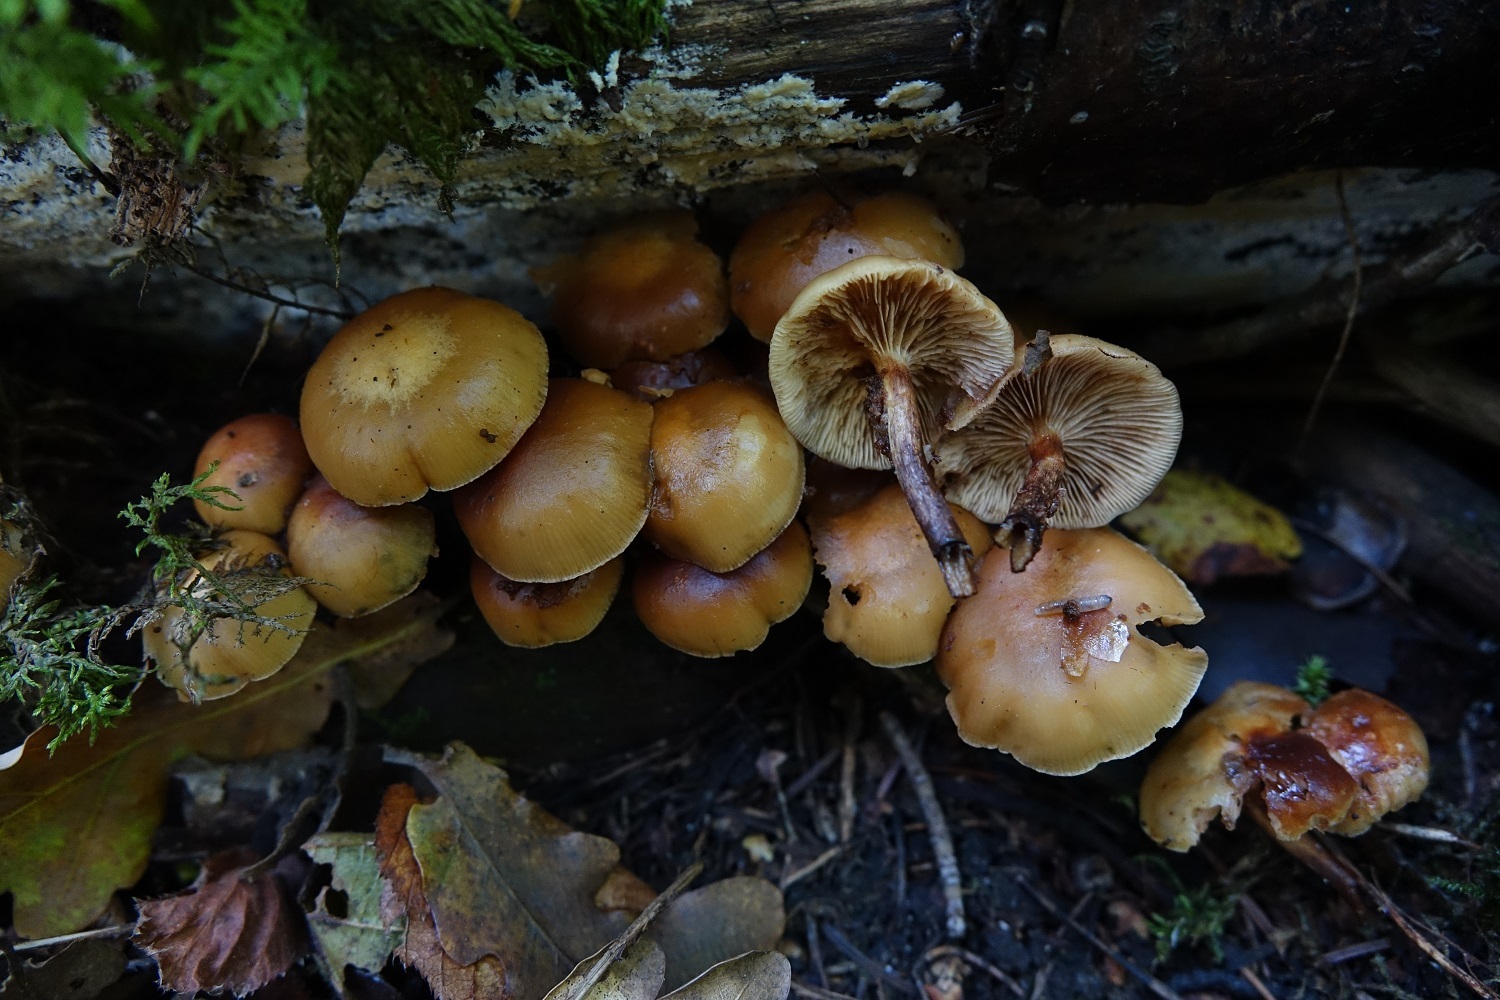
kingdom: Fungi
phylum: Basidiomycota
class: Agaricomycetes
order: Agaricales
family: Strophariaceae
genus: Kuehneromyces
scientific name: Kuehneromyces mutabilis
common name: Sheathed woodtuft
